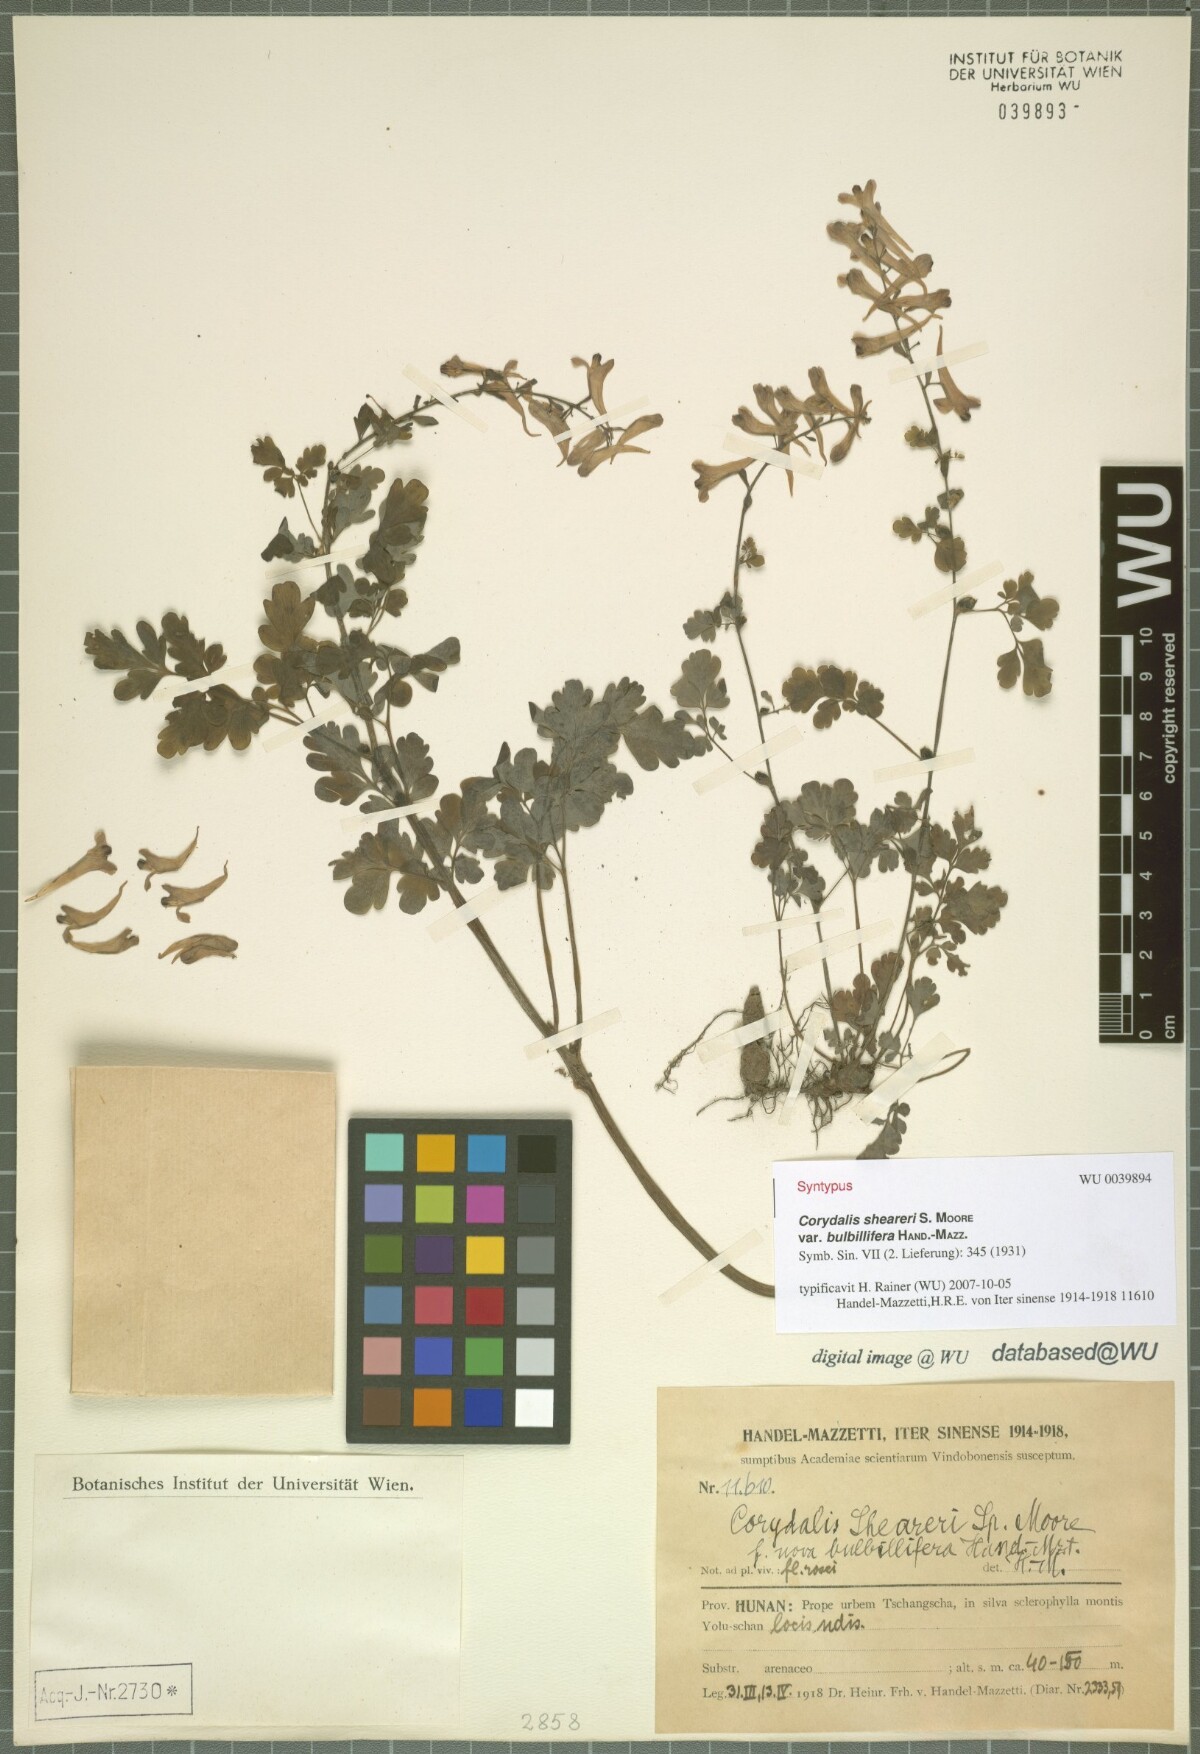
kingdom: Plantae
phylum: Tracheophyta
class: Magnoliopsida
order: Ranunculales
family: Papaveraceae
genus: Corydalis
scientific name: Corydalis sheareri
